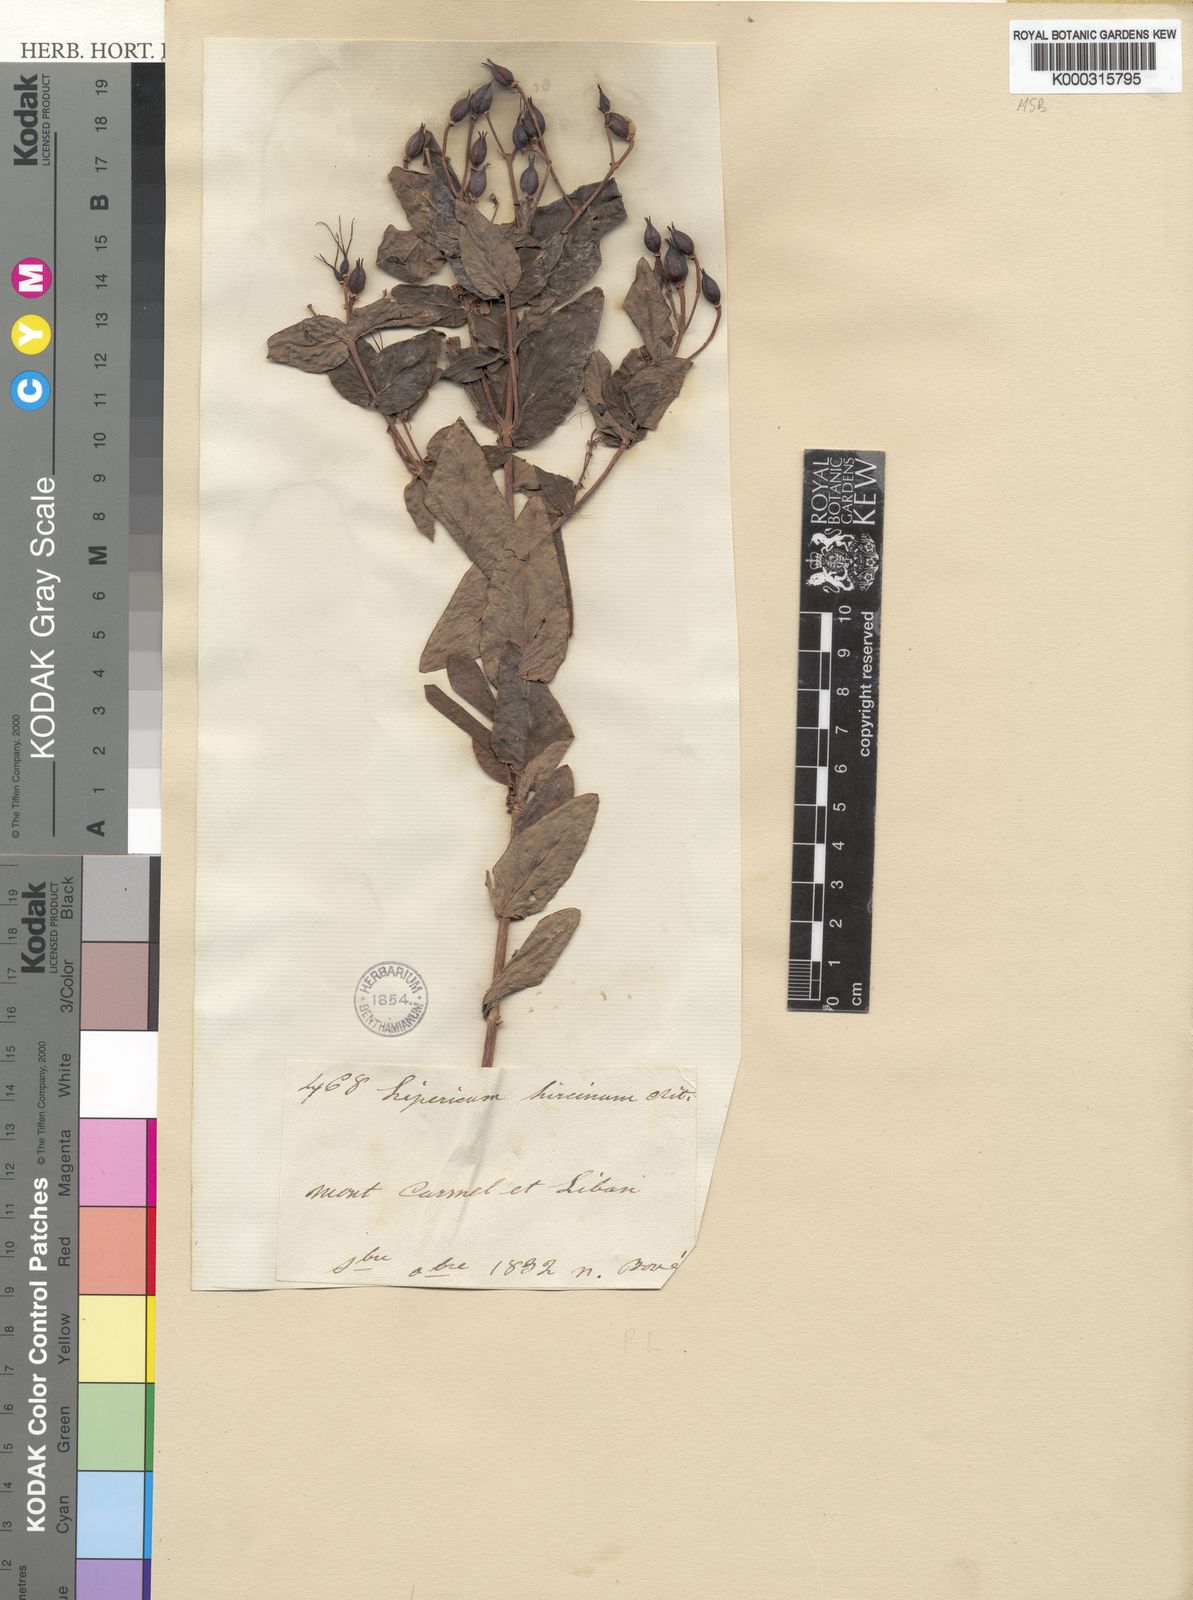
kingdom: Plantae
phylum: Tracheophyta
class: Magnoliopsida
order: Malpighiales
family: Hypericaceae
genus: Hypericum
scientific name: Hypericum hircinum
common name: Stinking tutsan
